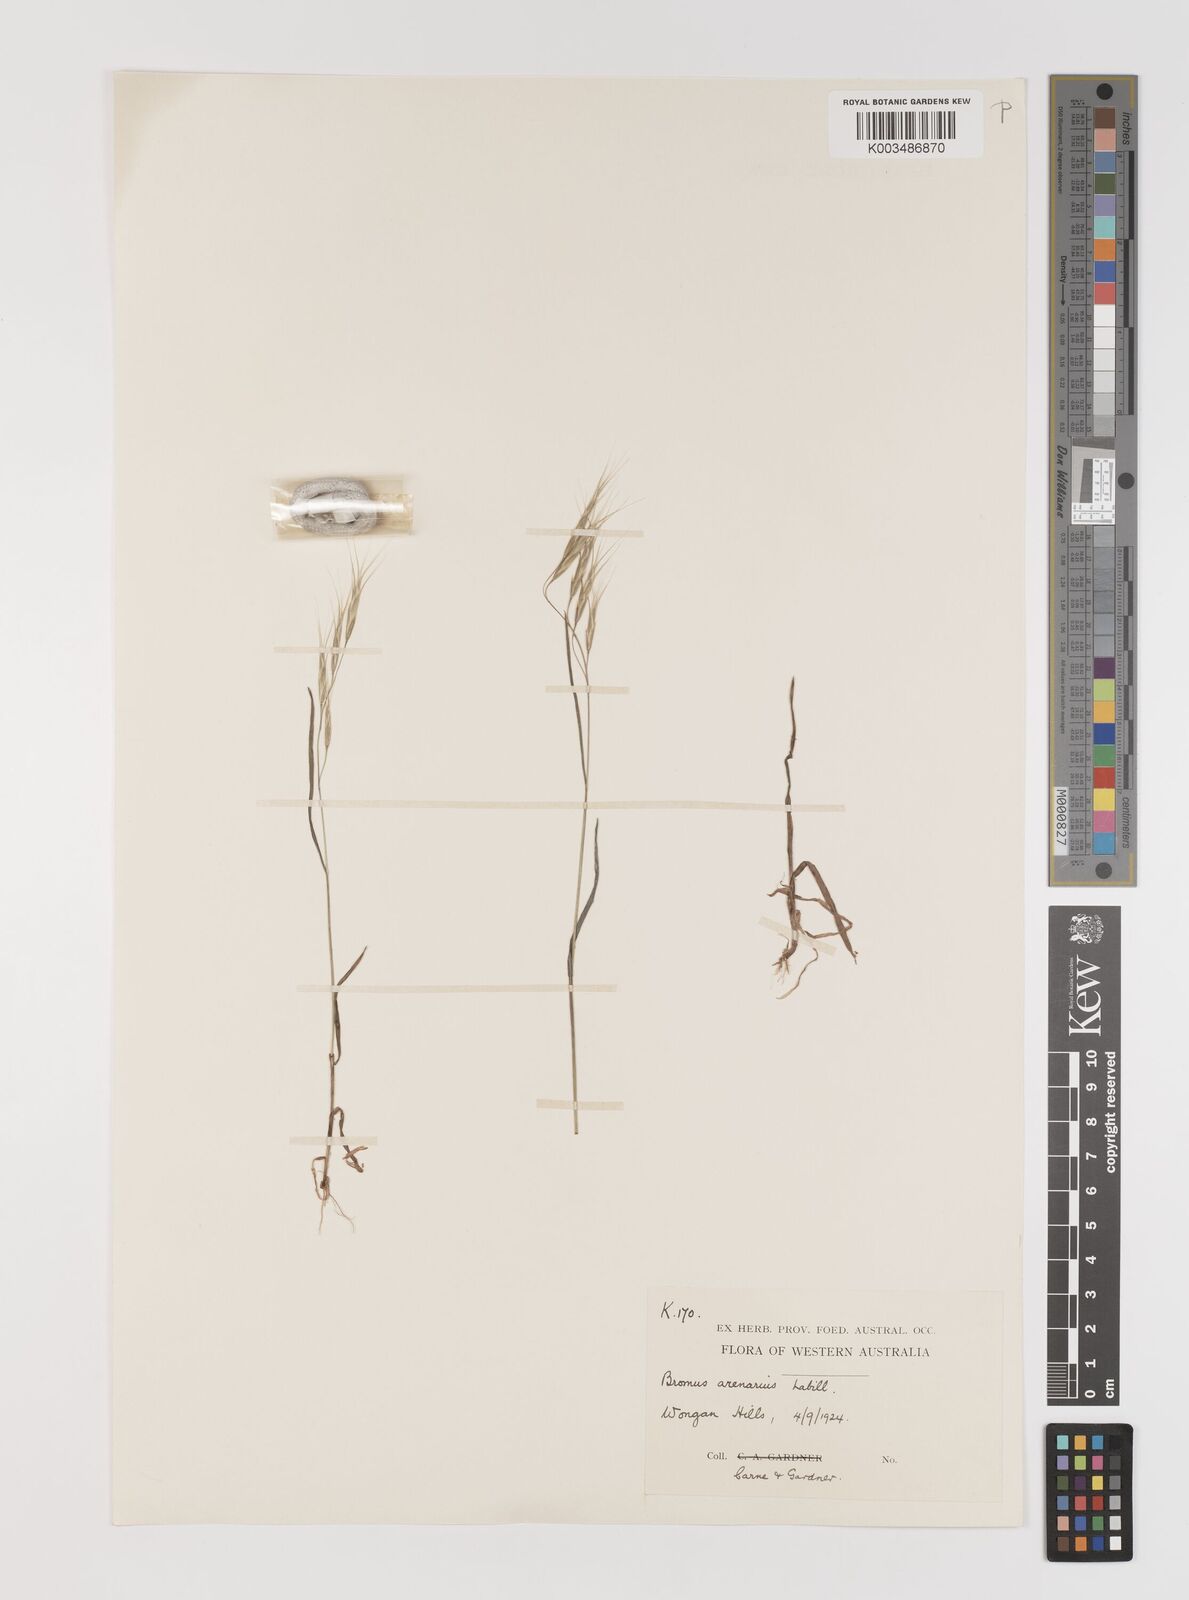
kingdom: Plantae
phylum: Tracheophyta
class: Liliopsida
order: Poales
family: Poaceae
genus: Bromus
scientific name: Bromus arenarius
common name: Australian brome
